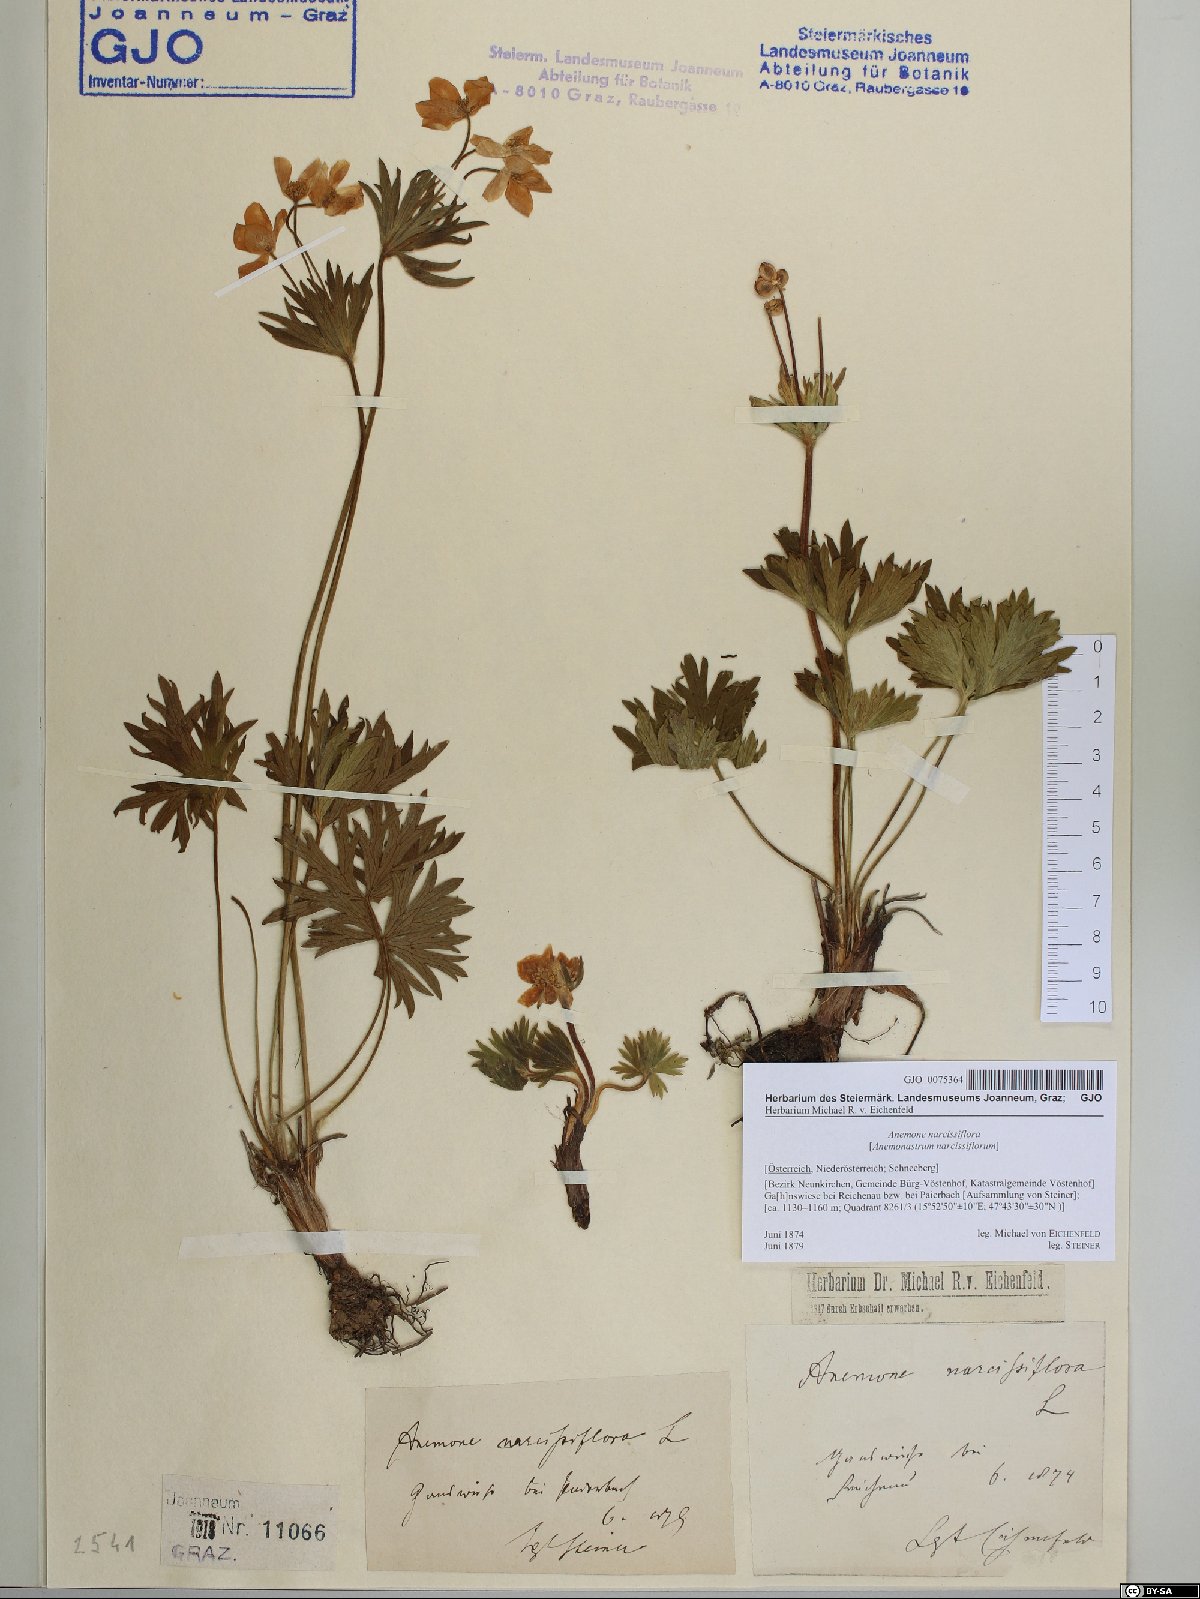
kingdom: Plantae
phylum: Tracheophyta
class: Magnoliopsida
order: Ranunculales
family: Ranunculaceae
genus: Anemonastrum
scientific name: Anemonastrum narcissiflorum
